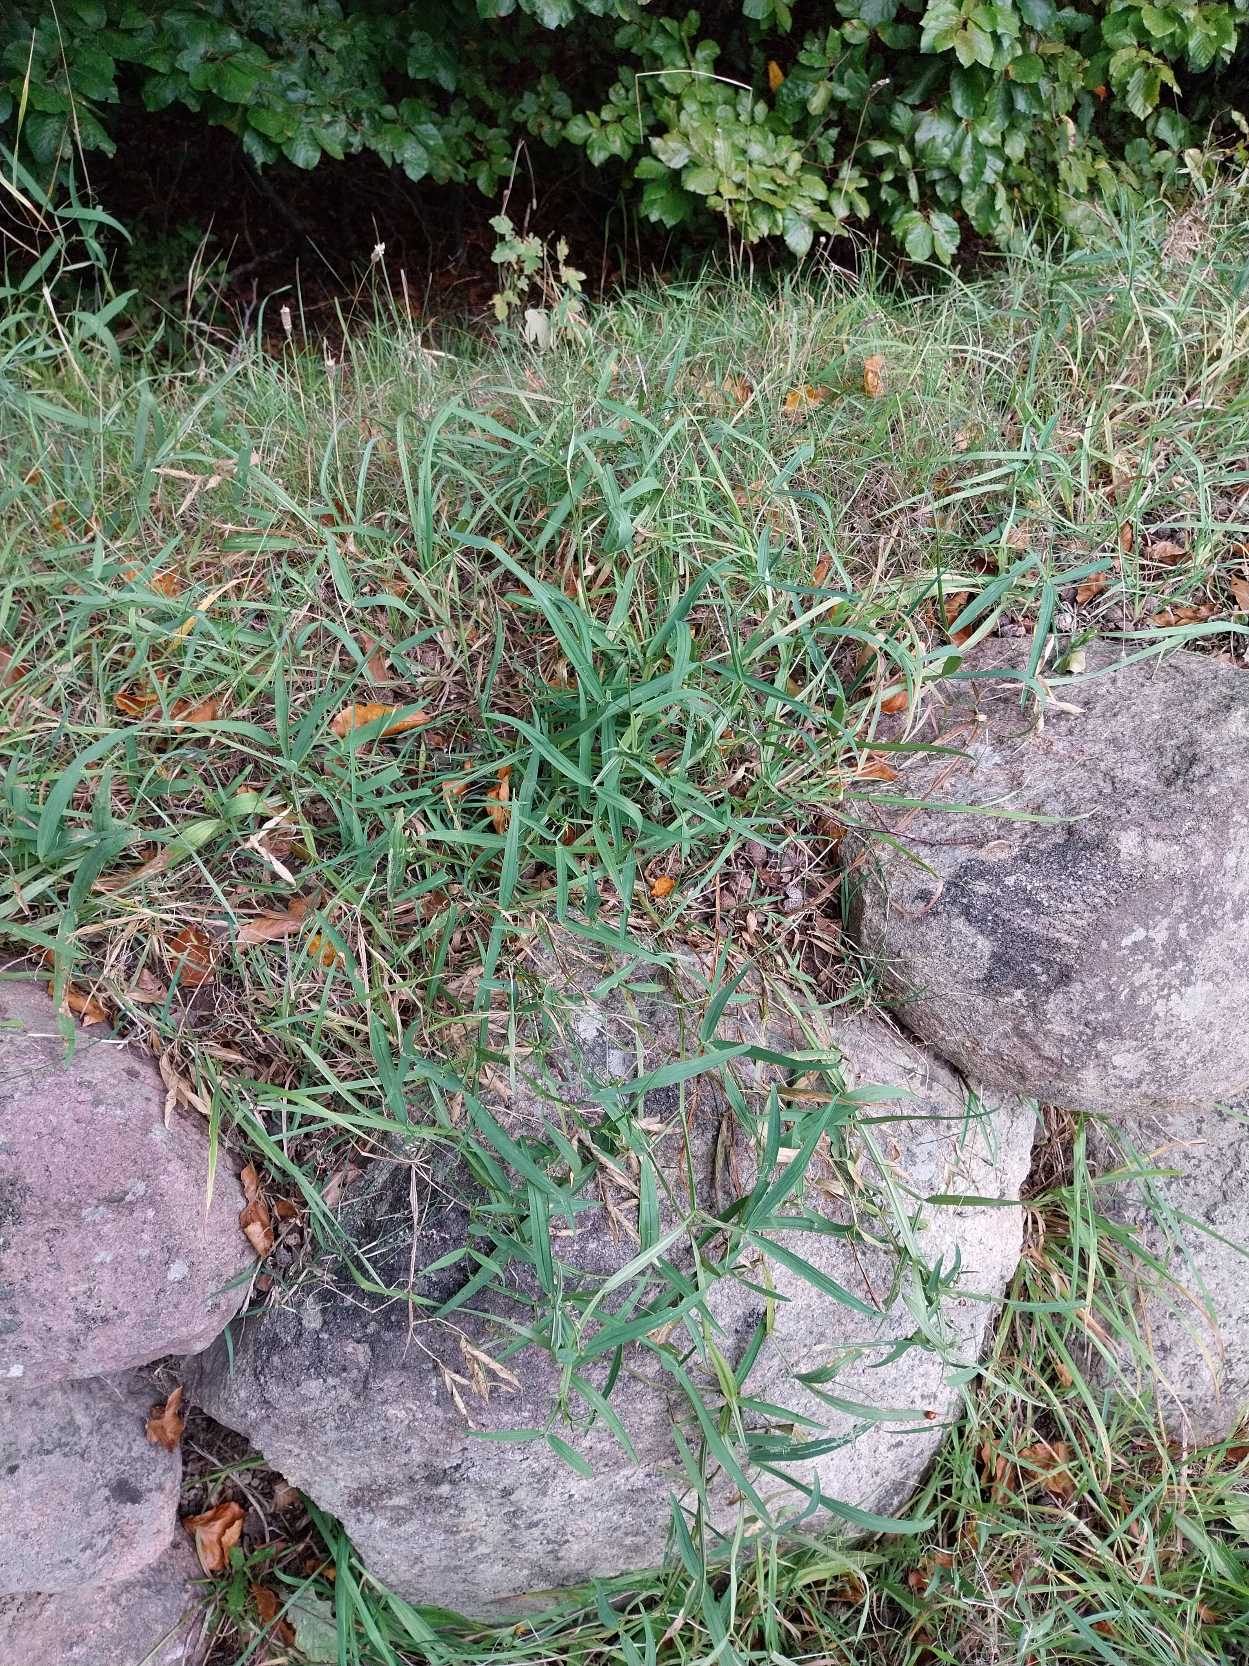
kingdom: Plantae
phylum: Tracheophyta
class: Magnoliopsida
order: Fabales
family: Fabaceae
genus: Lathyrus
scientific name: Lathyrus sylvestris
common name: Skov-fladbælg
